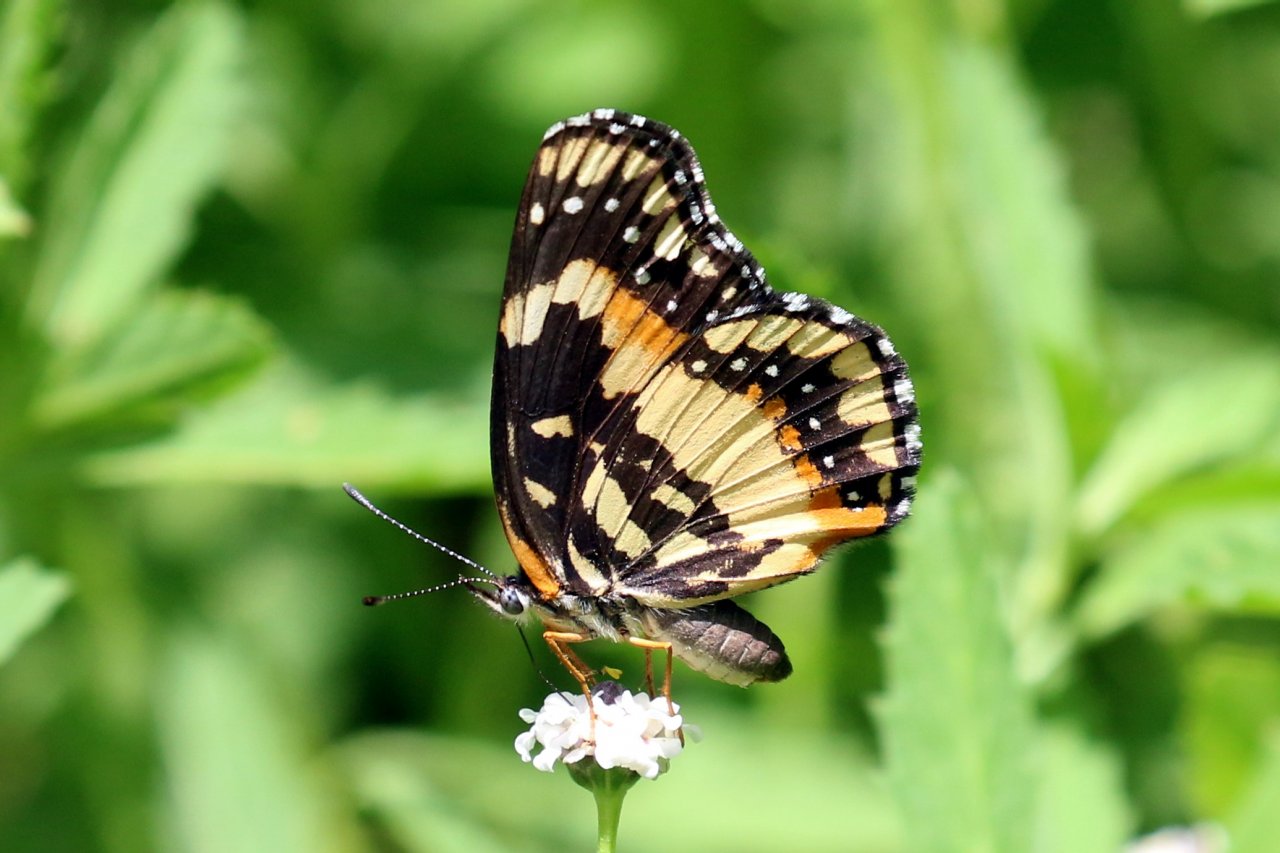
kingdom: Animalia
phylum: Arthropoda
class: Insecta
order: Lepidoptera
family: Nymphalidae
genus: Chlosyne
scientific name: Chlosyne lacinia
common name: Bordered Patch
